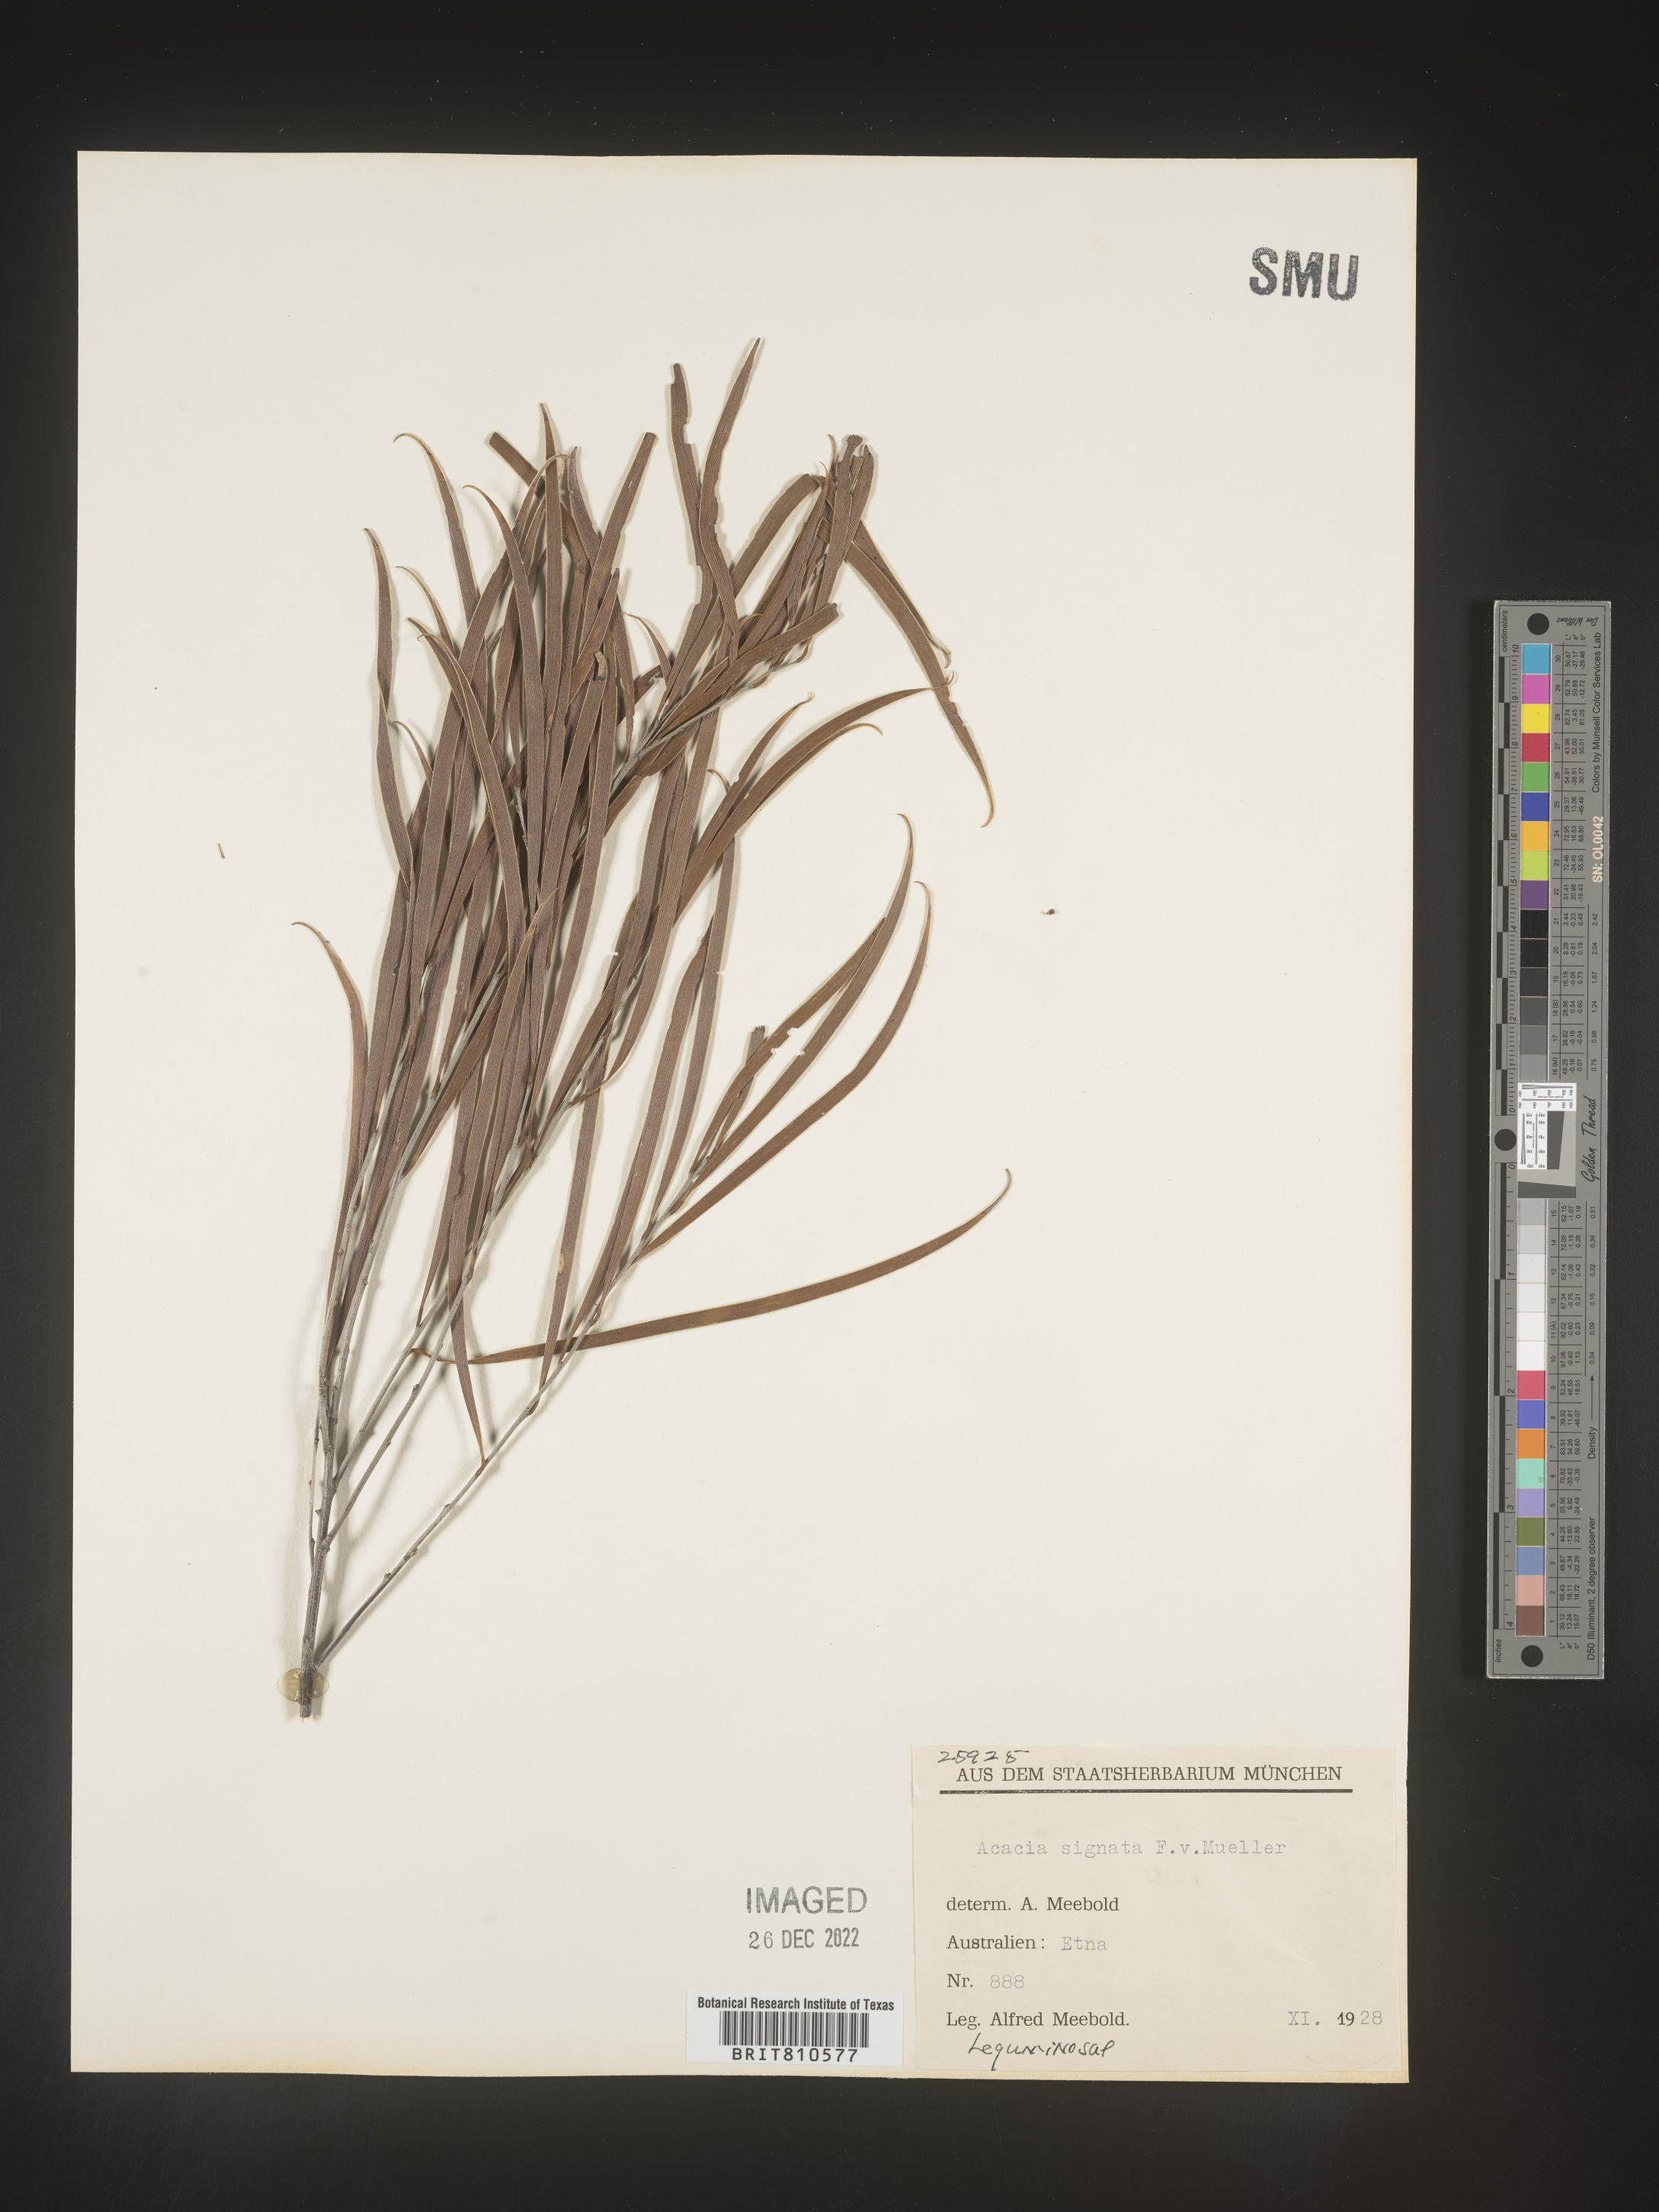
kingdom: Plantae
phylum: Tracheophyta
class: Magnoliopsida
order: Fabales
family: Fabaceae
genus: Acacia
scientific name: Acacia
